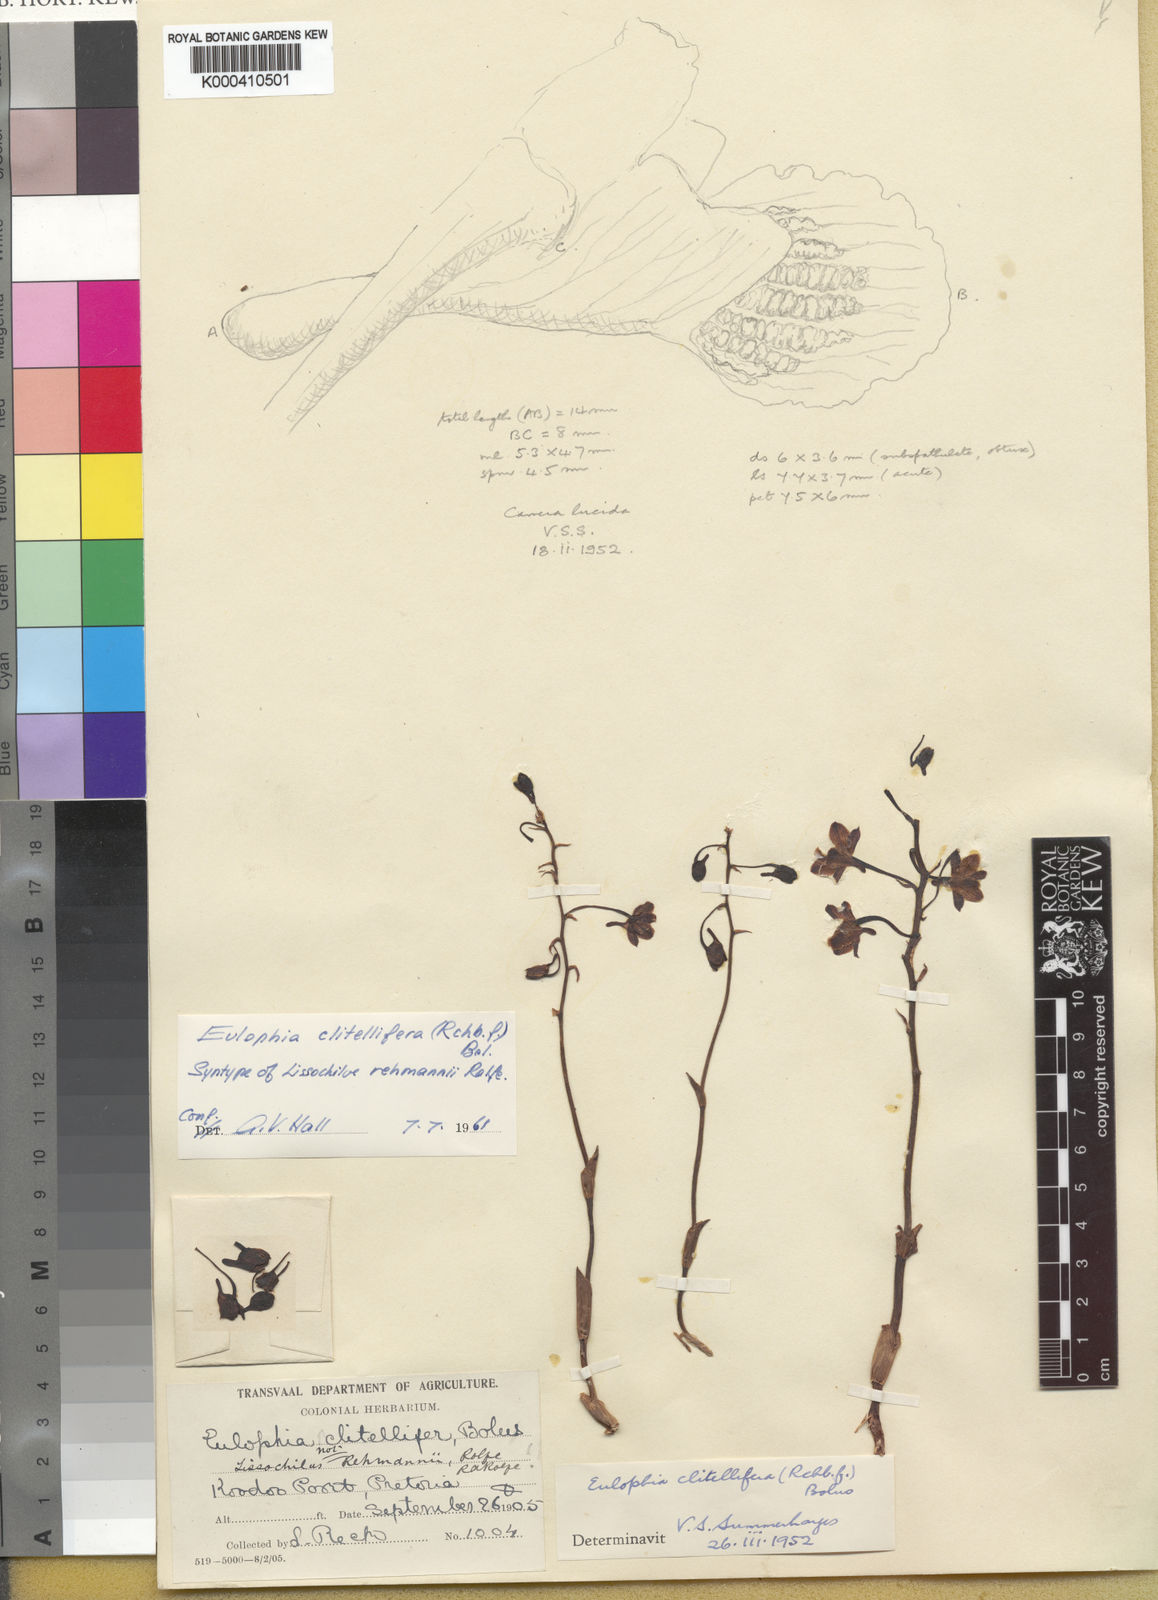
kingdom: Plantae
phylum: Tracheophyta
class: Liliopsida
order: Asparagales
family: Orchidaceae
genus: Eulophia
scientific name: Eulophia
